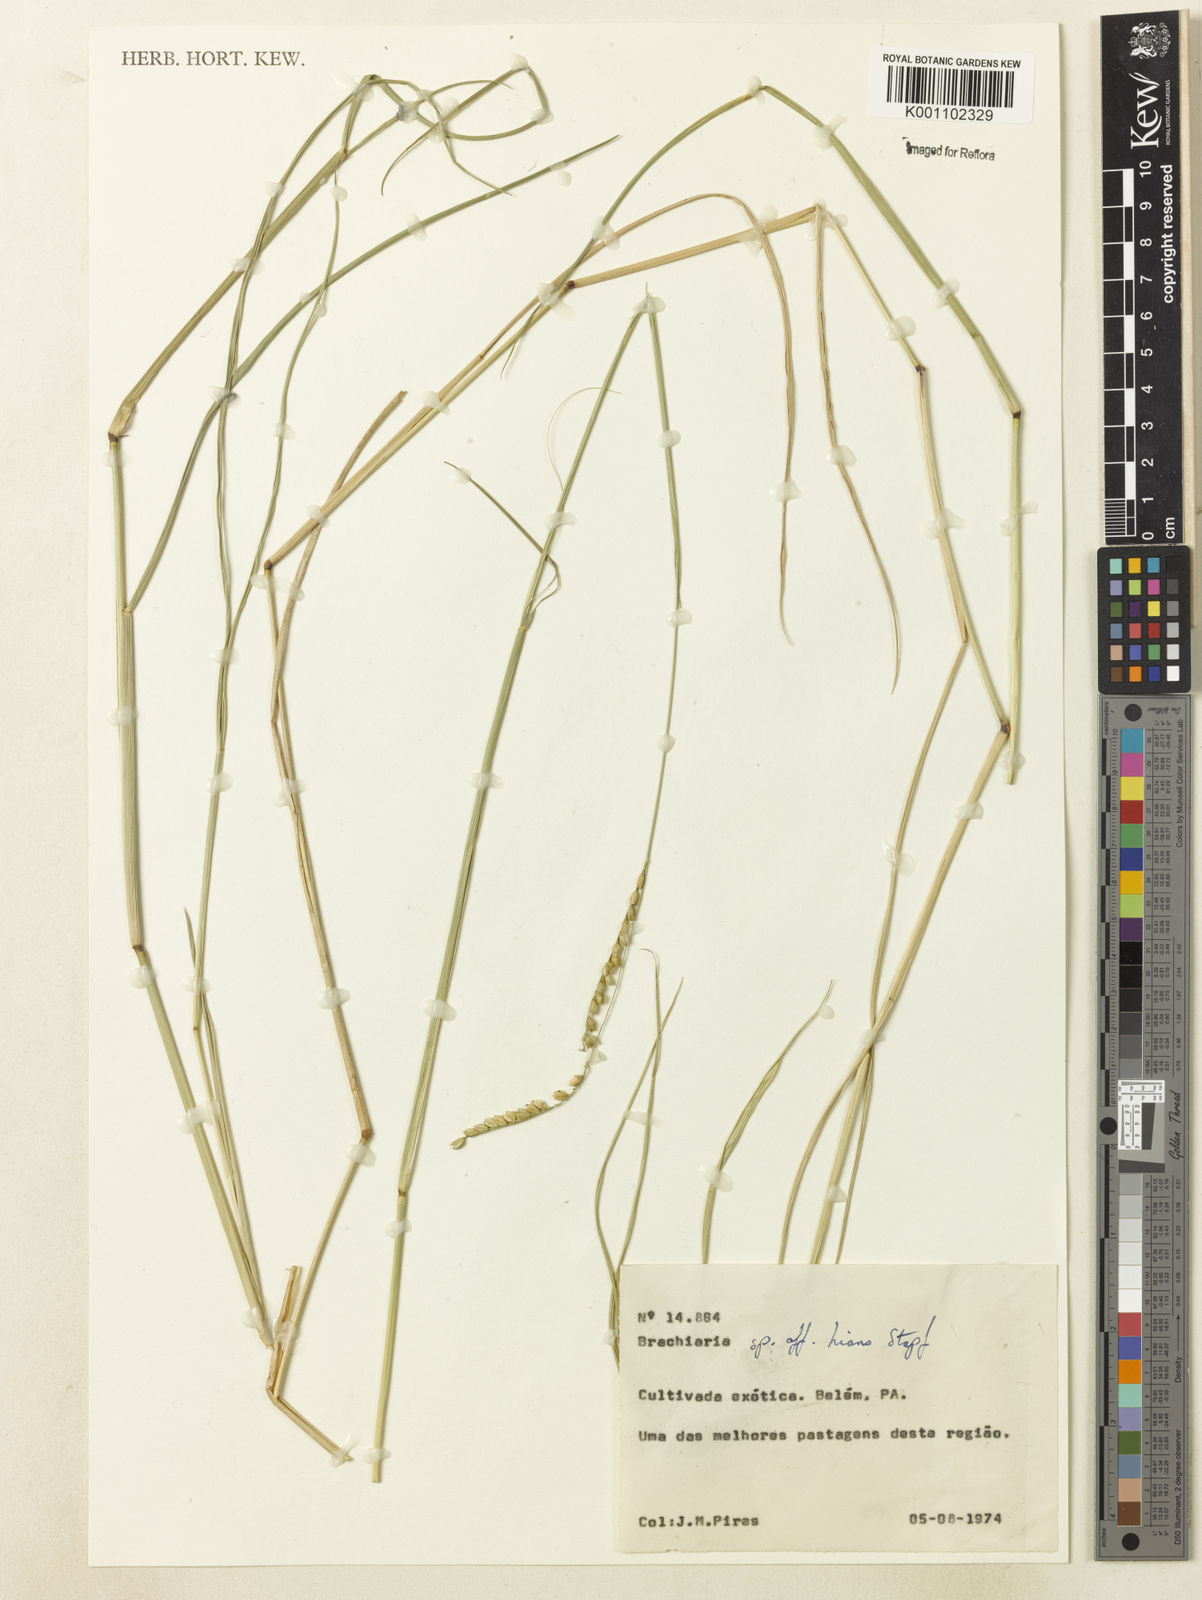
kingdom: Plantae
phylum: Tracheophyta
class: Liliopsida
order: Poales
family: Poaceae
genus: Urochloa
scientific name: Urochloa bovonei
